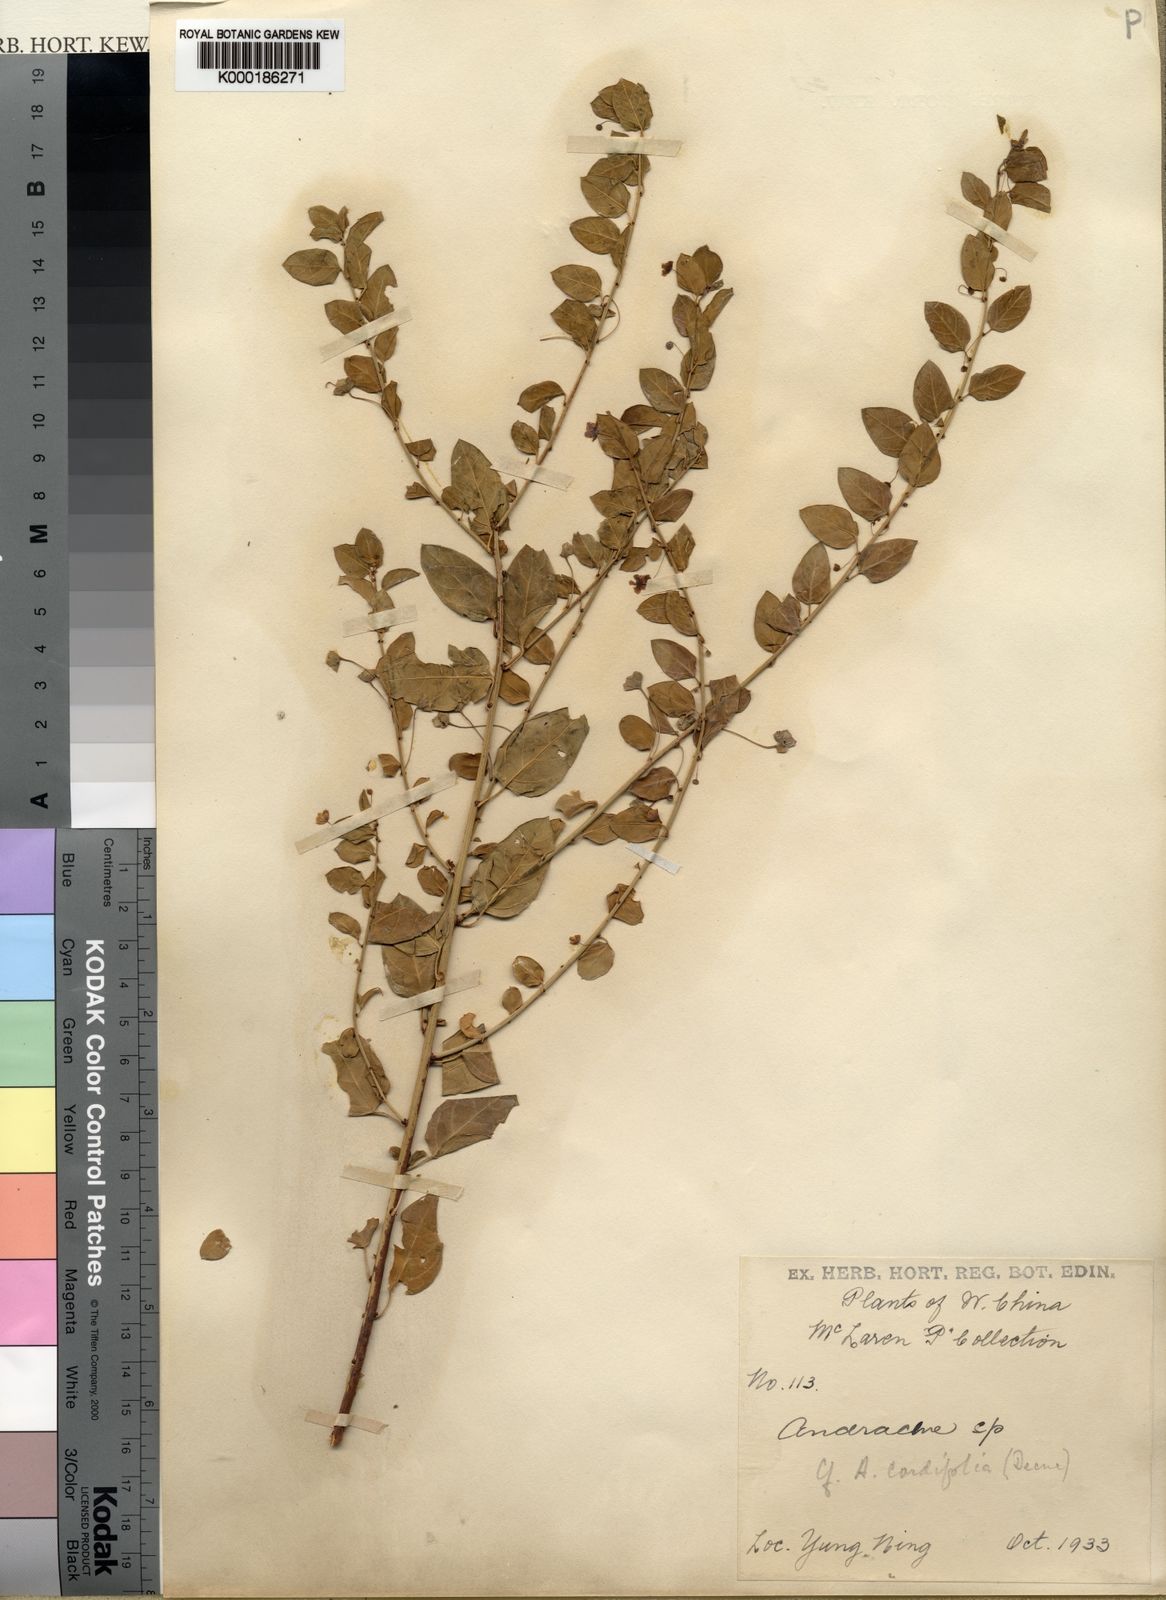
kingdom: Plantae
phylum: Tracheophyta
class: Magnoliopsida
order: Malpighiales
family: Phyllanthaceae
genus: Leptopus
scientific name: Leptopus cordifolius
